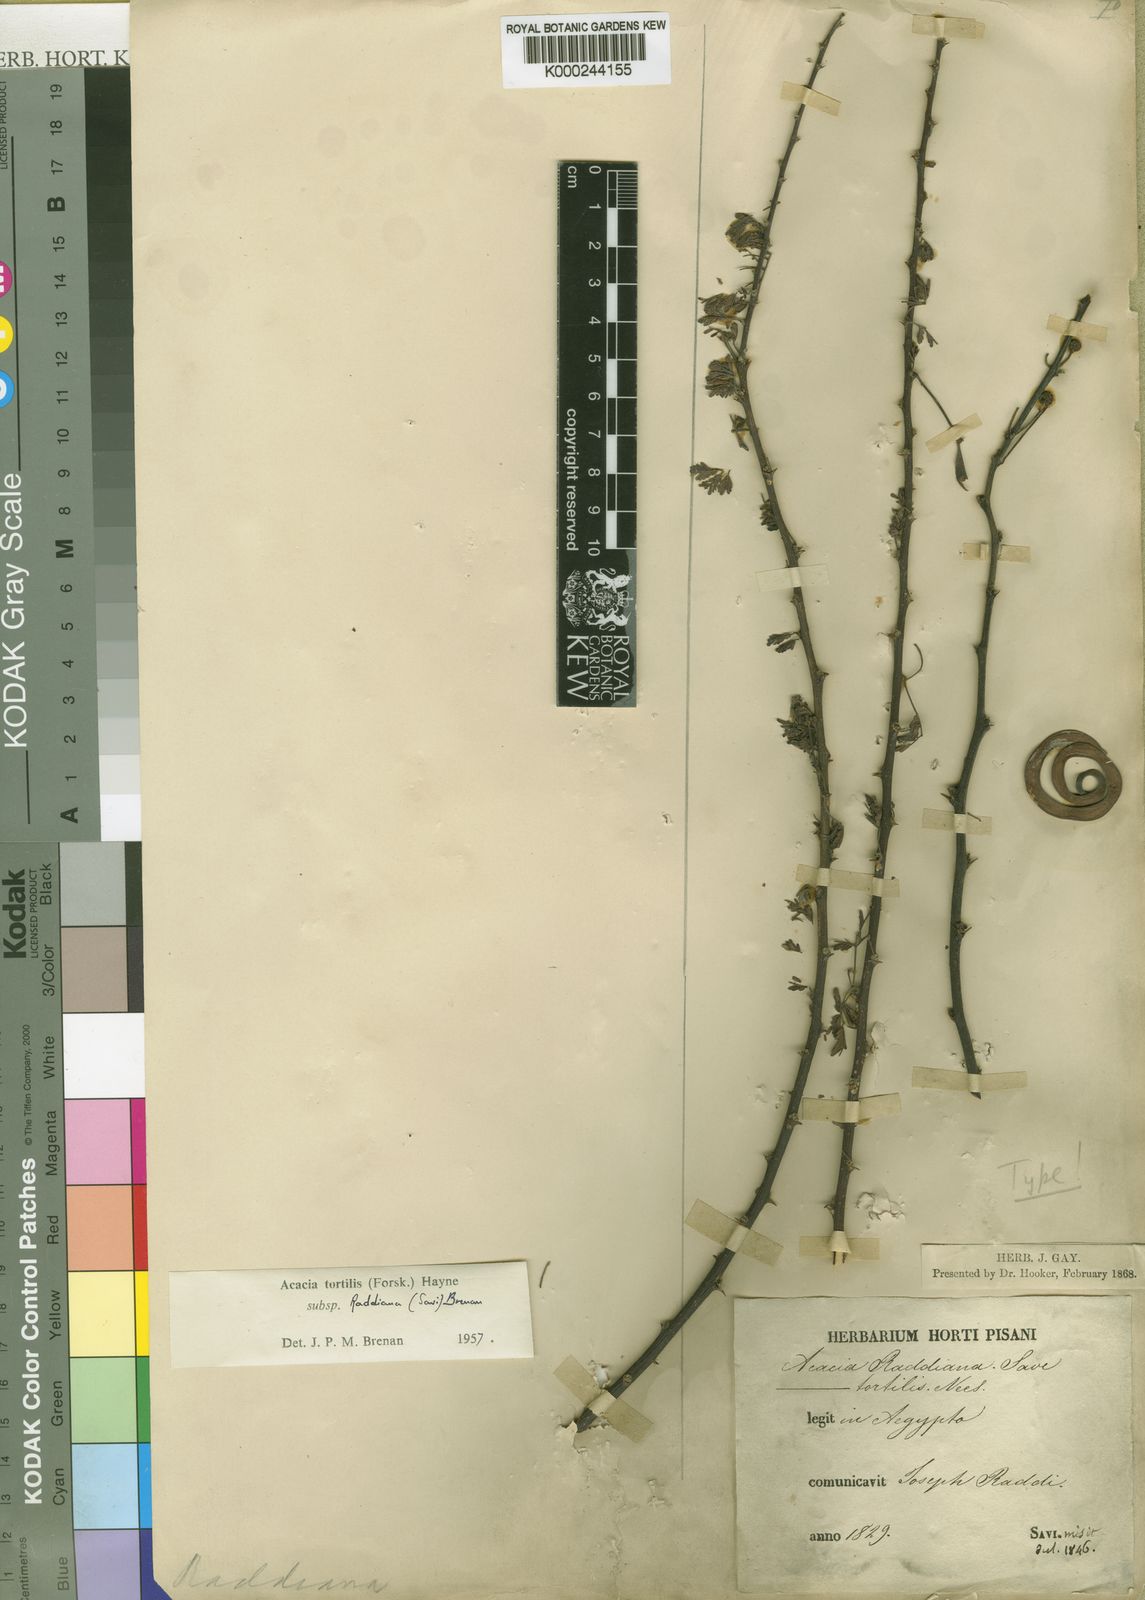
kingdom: Plantae
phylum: Tracheophyta
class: Magnoliopsida
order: Fabales
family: Fabaceae
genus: Vachellia
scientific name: Vachellia tortilis
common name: Umbrella thorn acacia
